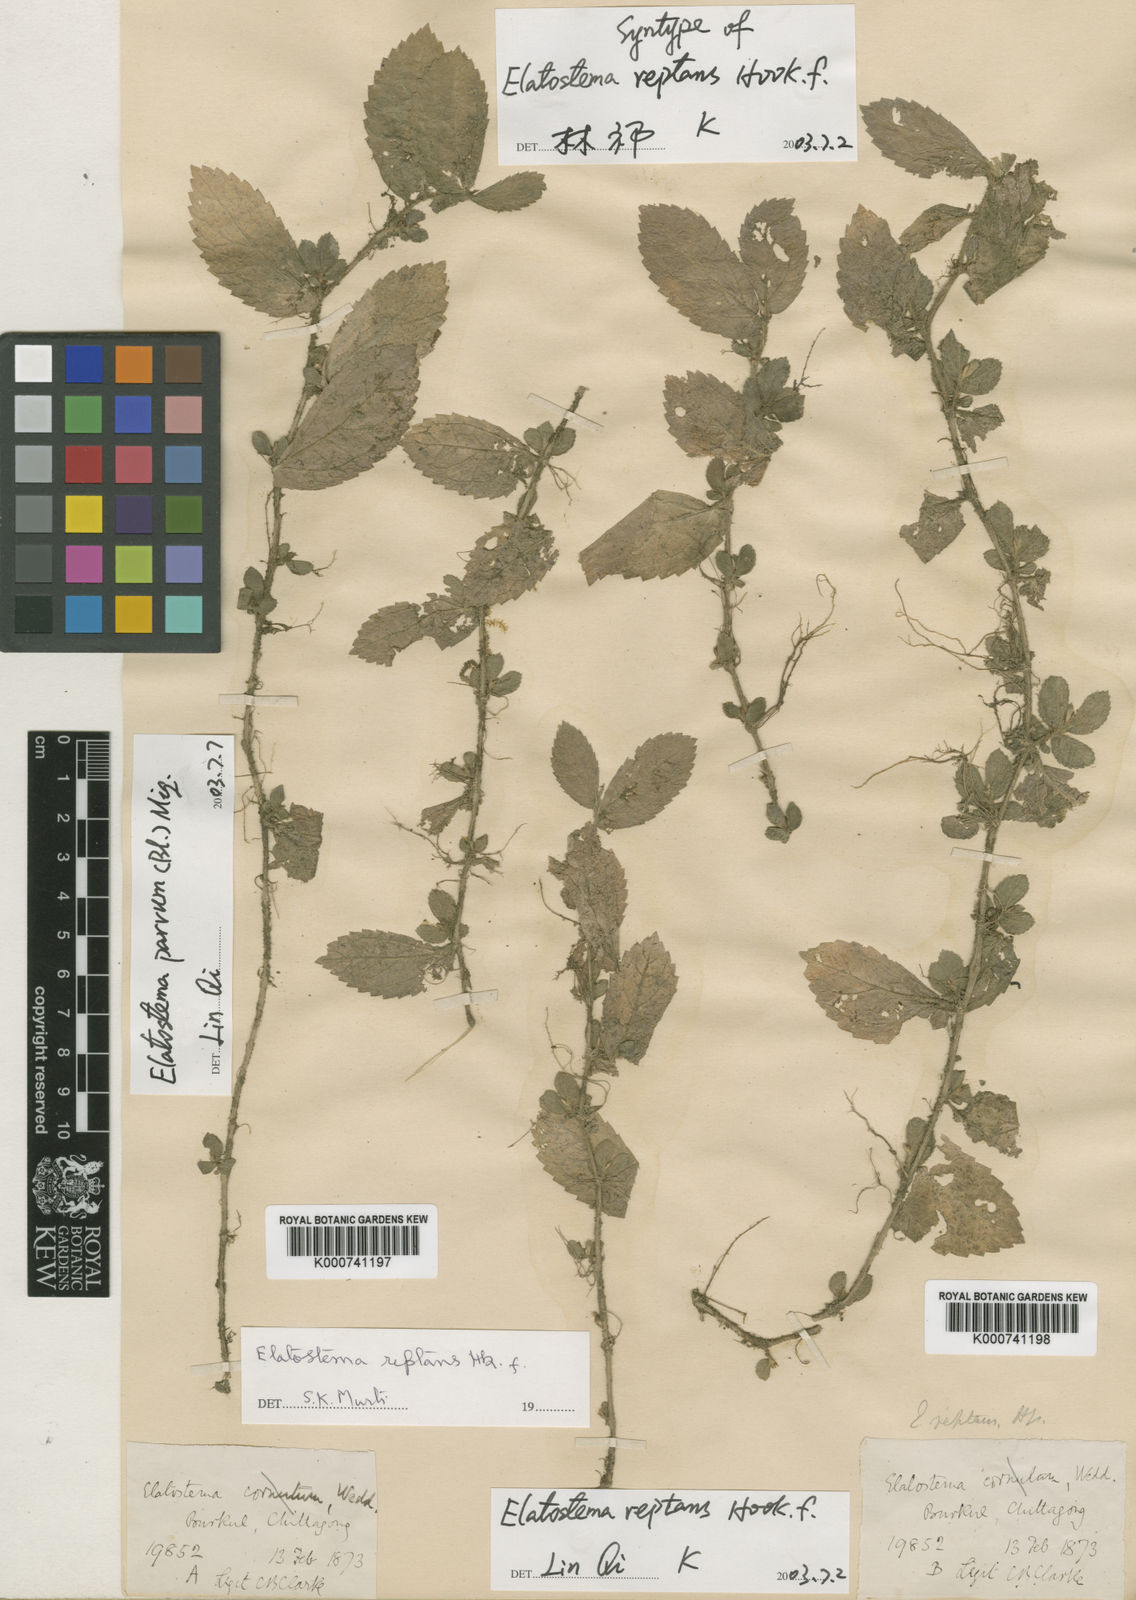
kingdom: Plantae
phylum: Tracheophyta
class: Magnoliopsida
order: Rosales
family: Urticaceae
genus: Elatostema
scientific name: Elatostema parvum
